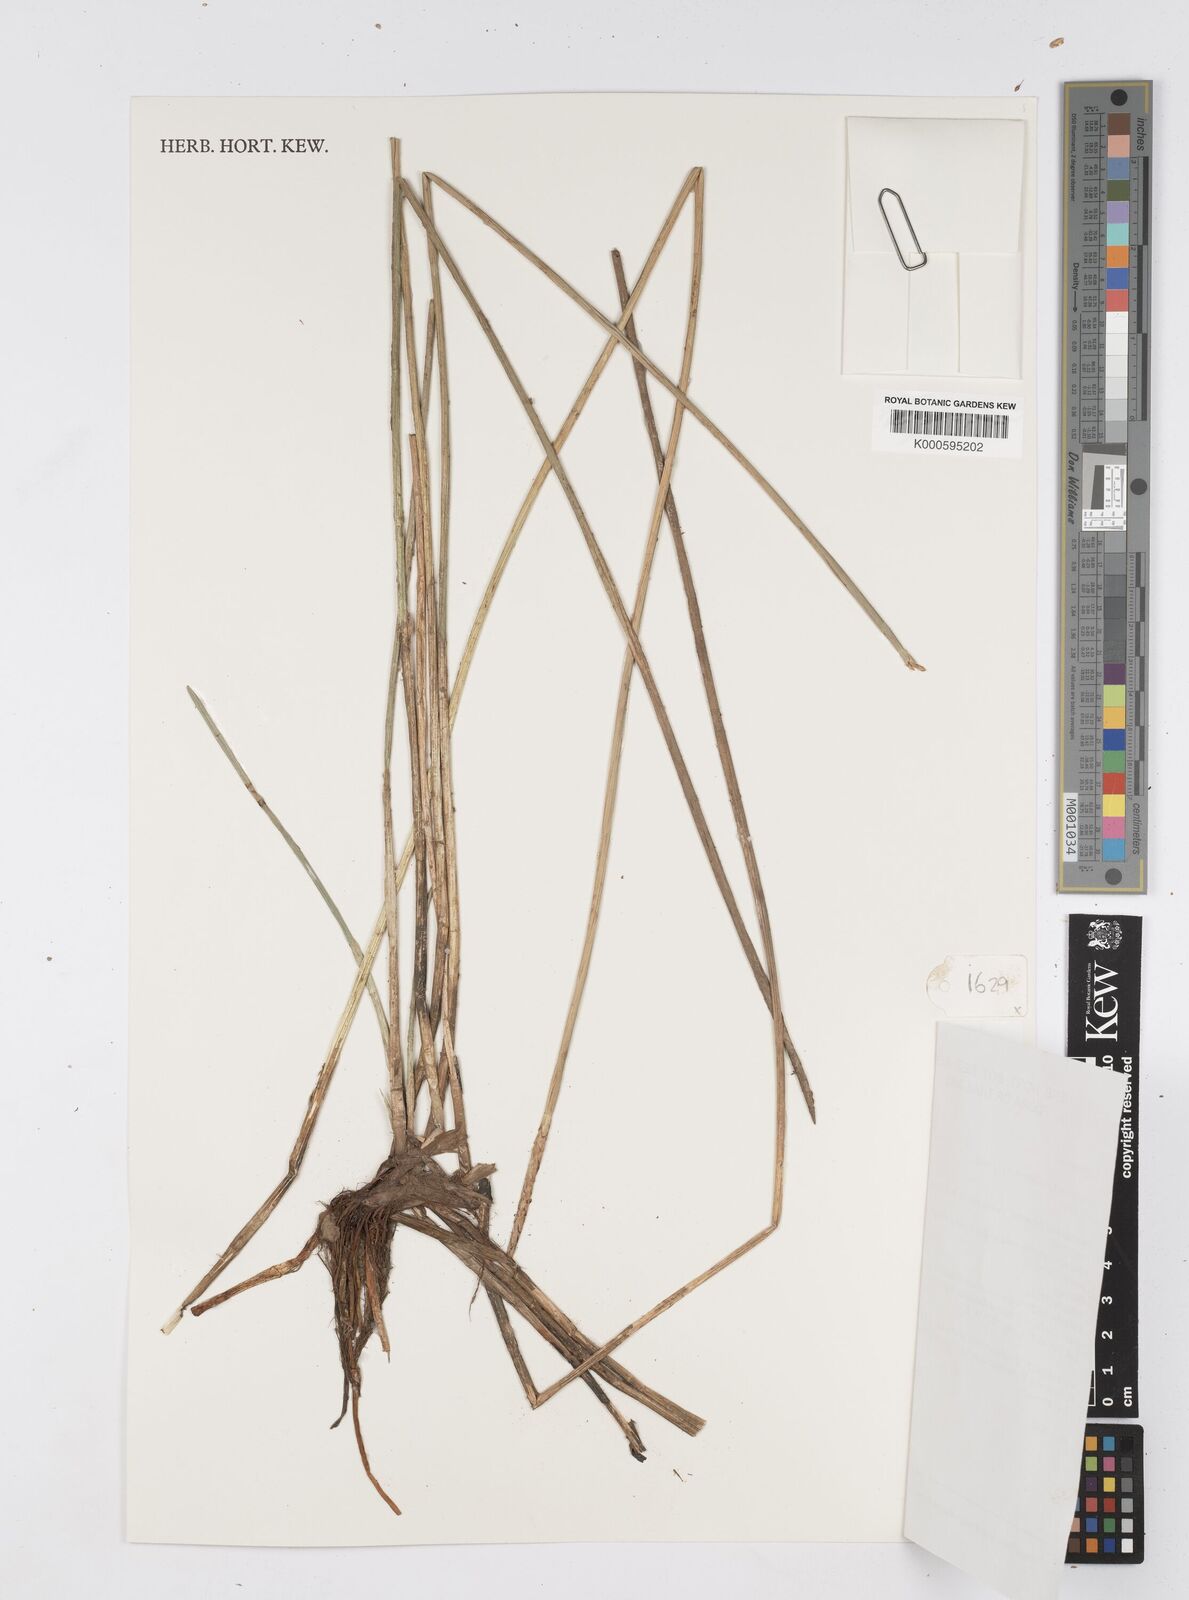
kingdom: Plantae
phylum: Tracheophyta
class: Liliopsida
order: Poales
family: Cyperaceae
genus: Eleocharis
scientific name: Eleocharis dulcis
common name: Chinese water chestnut
